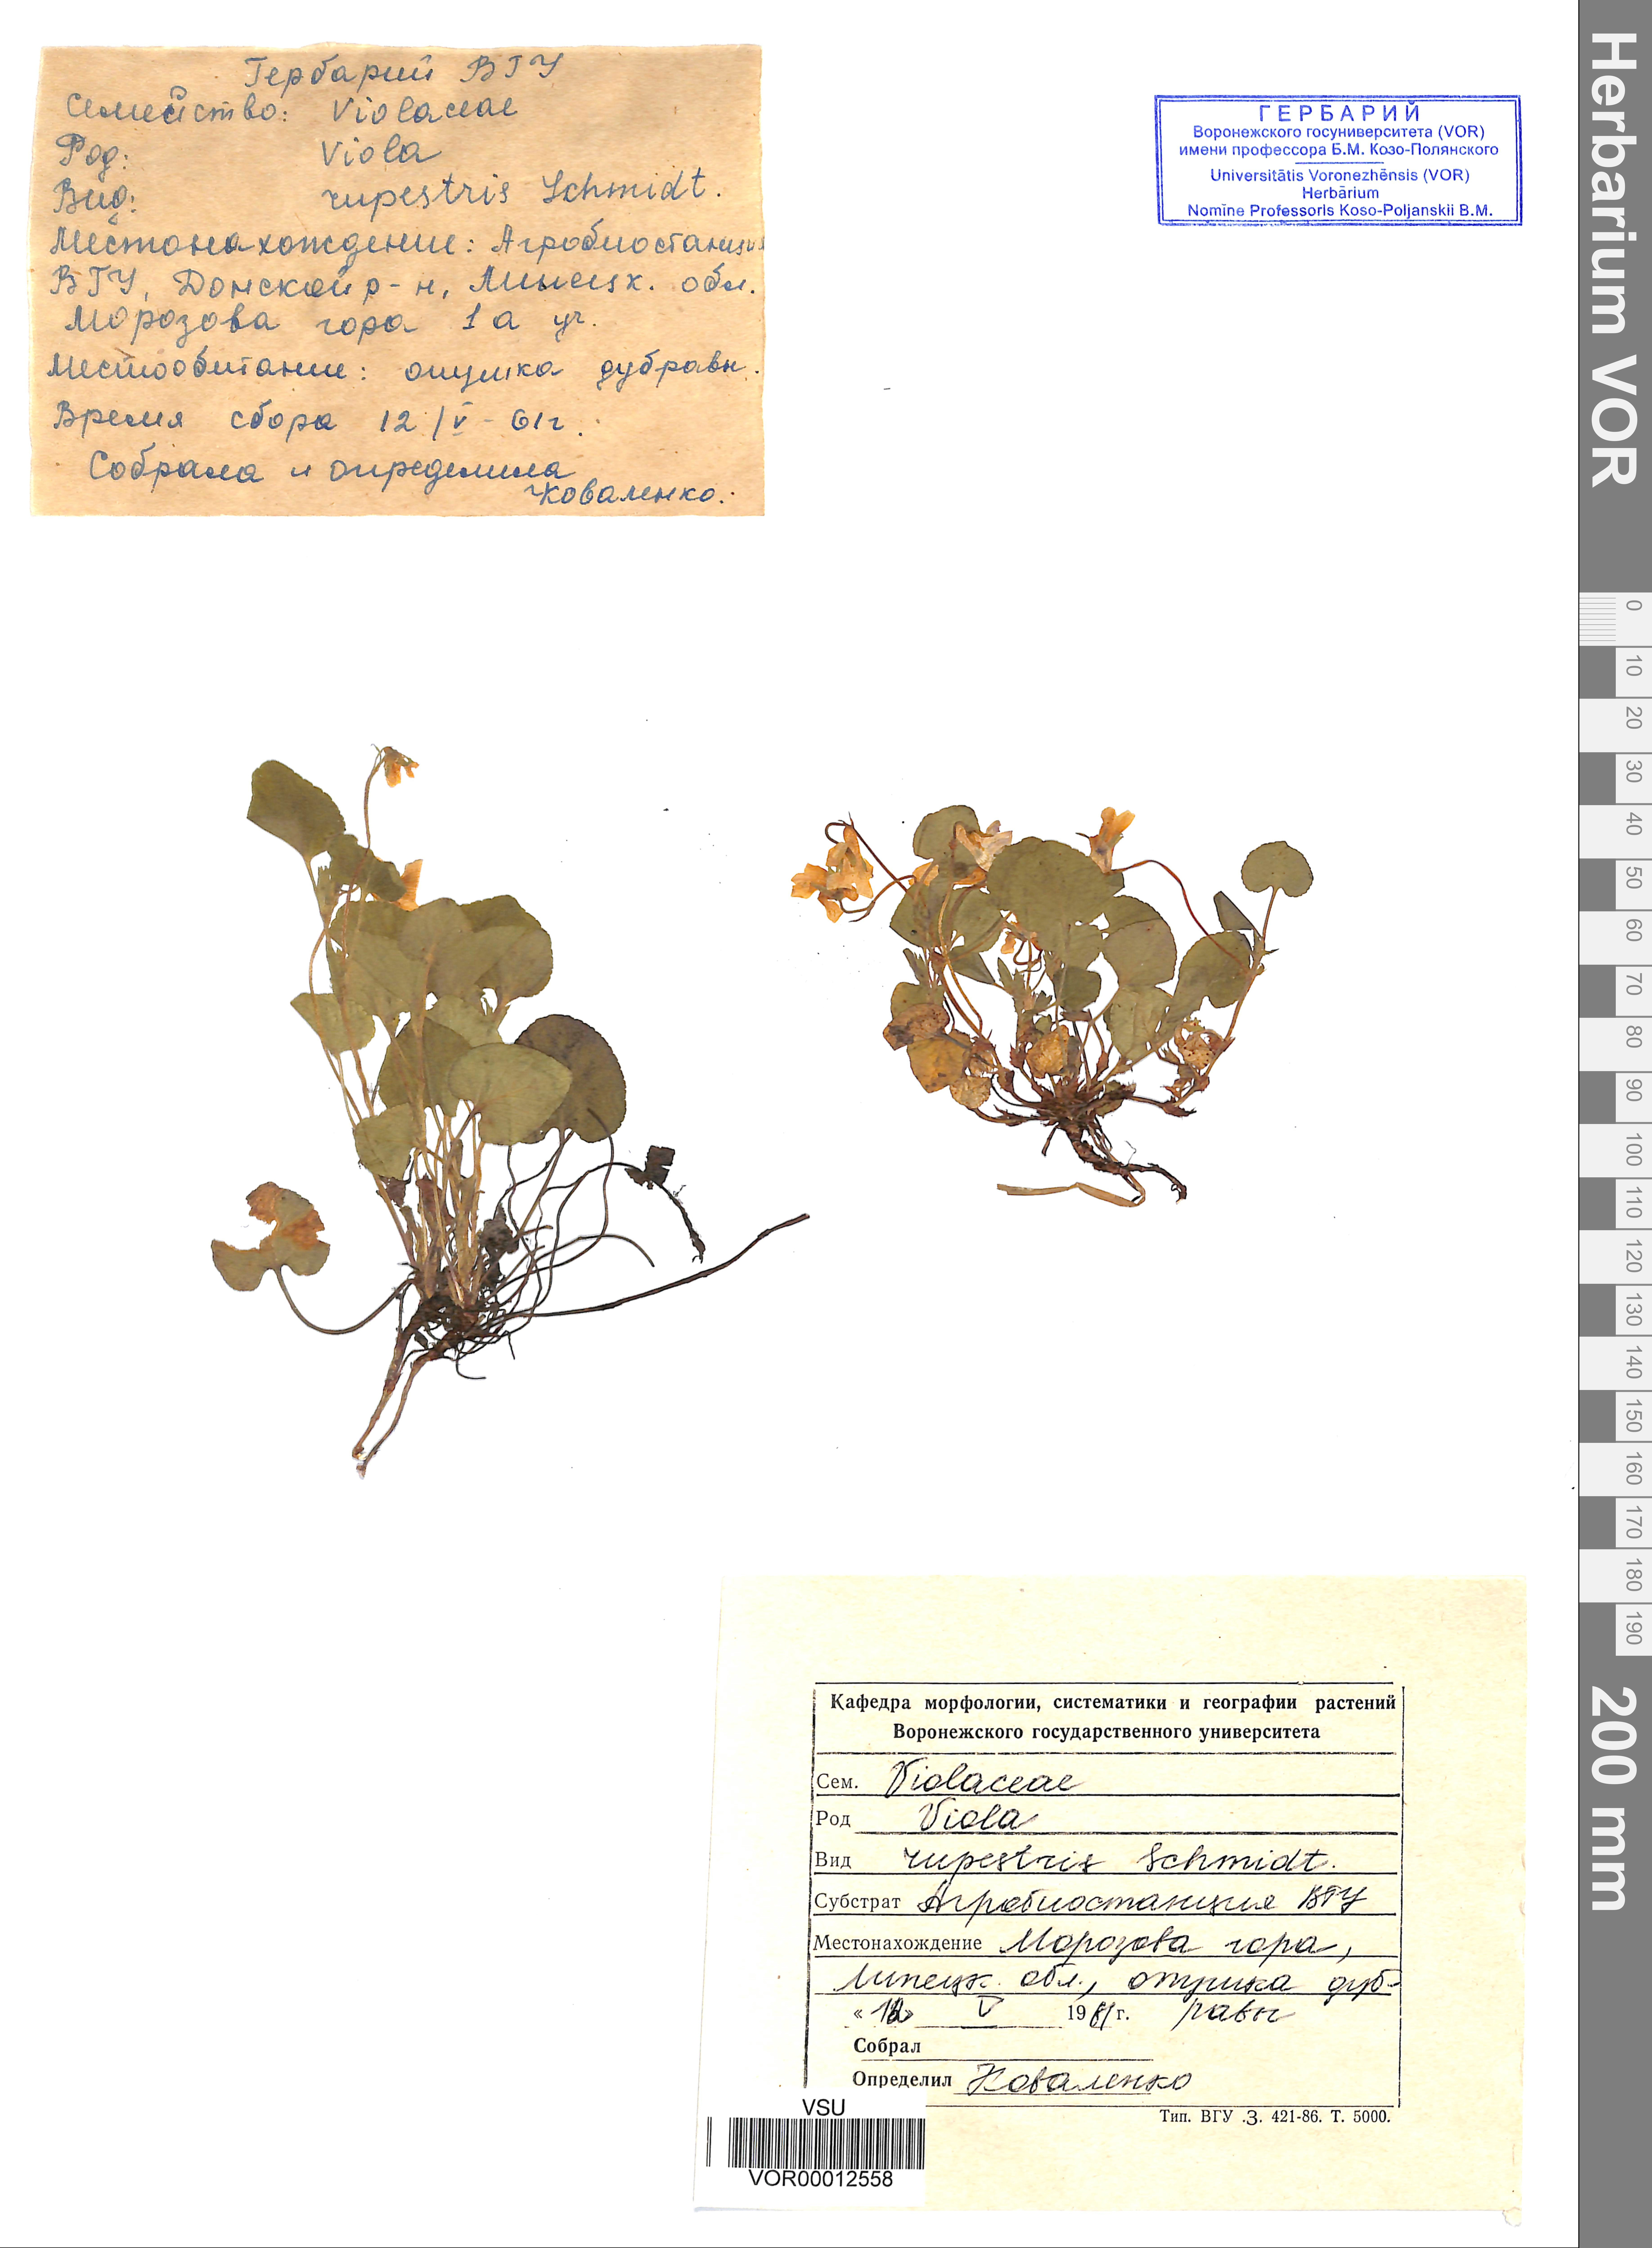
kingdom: Plantae
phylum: Tracheophyta
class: Magnoliopsida
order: Malpighiales
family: Violaceae
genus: Viola
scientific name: Viola rupestris
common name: Teesdale violet
